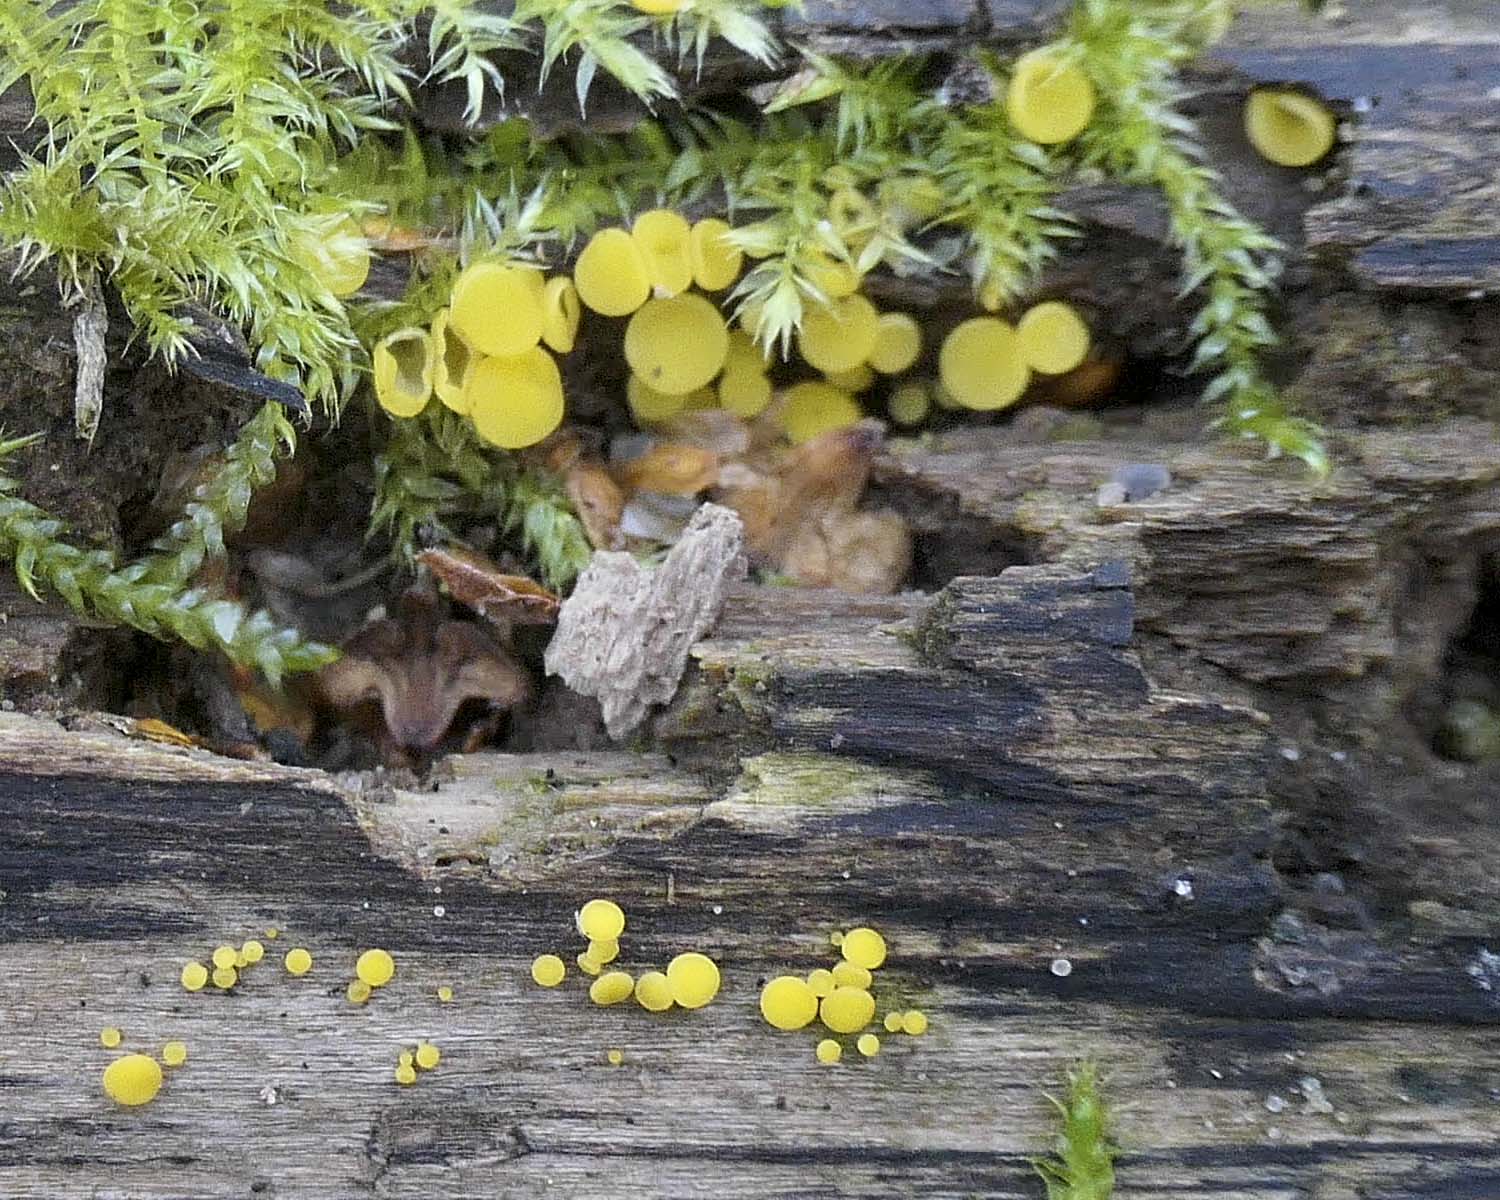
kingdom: Fungi
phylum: Ascomycota
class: Leotiomycetes
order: Helotiales
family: Pezizellaceae
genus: Calycina
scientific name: Calycina citrina
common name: almindelig gulskive
